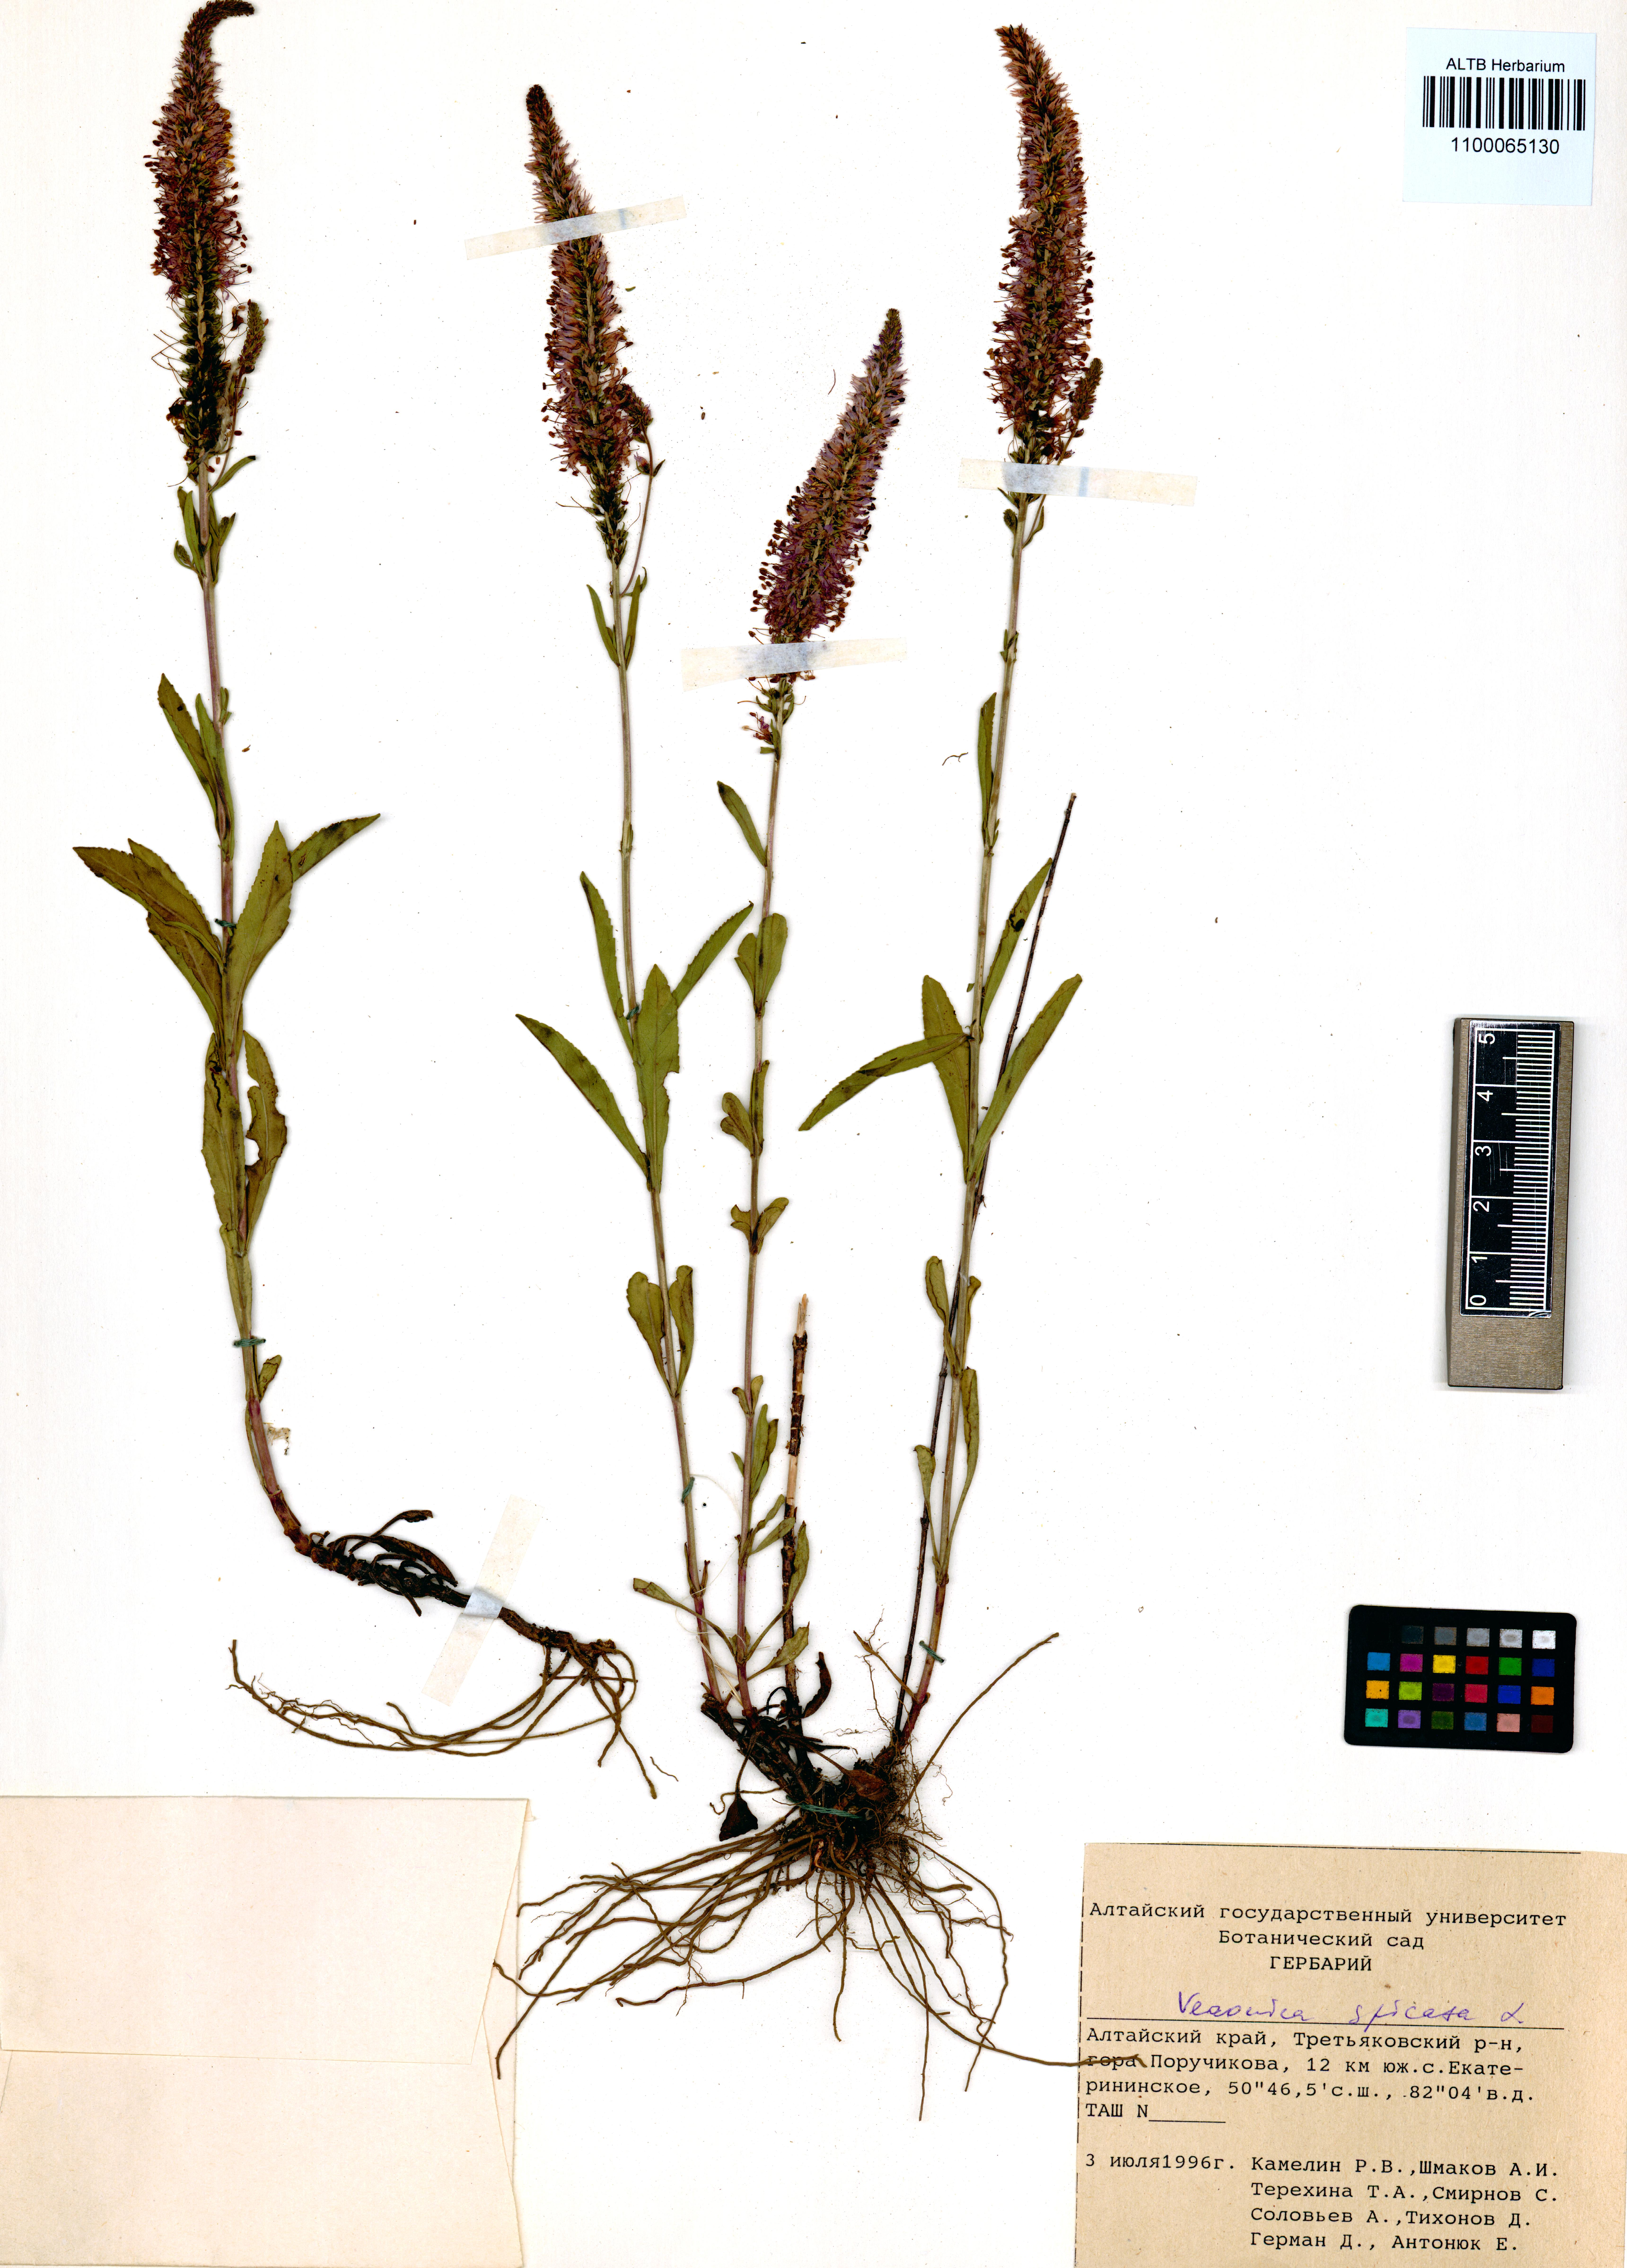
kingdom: Plantae
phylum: Tracheophyta
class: Magnoliopsida
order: Lamiales
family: Plantaginaceae
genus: Veronica
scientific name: Veronica spicata
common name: Spiked speedwell
